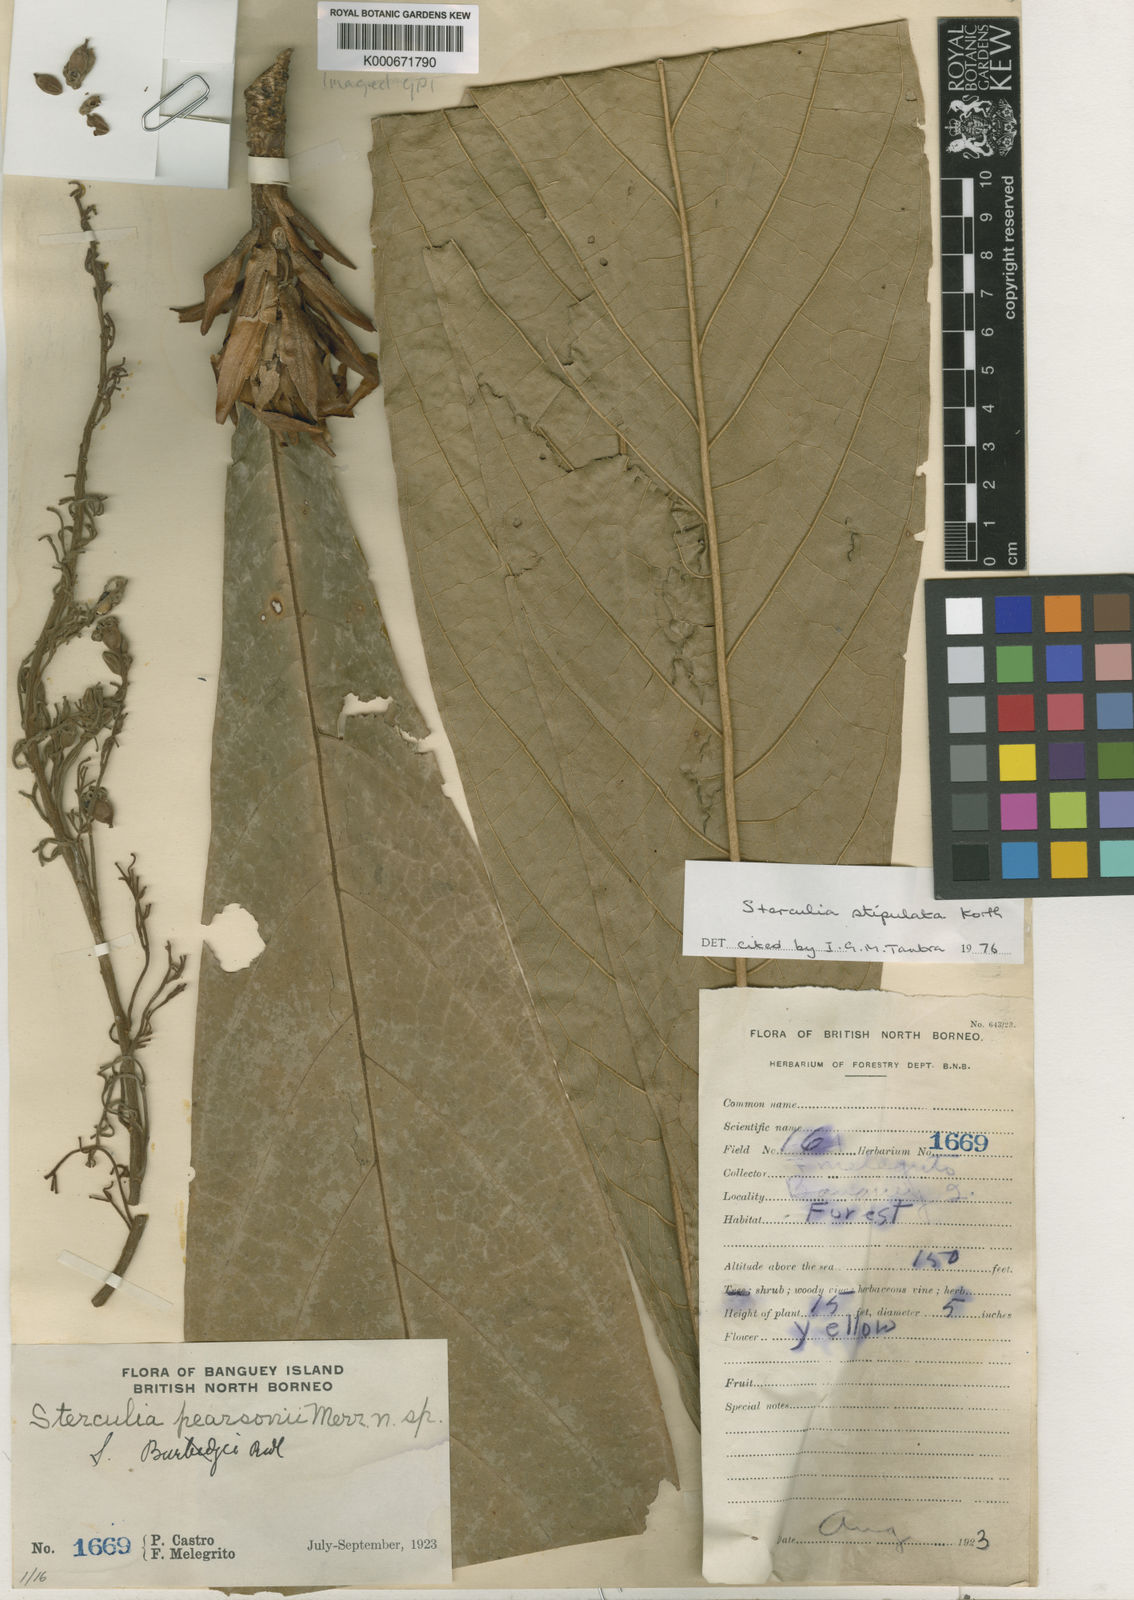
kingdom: Plantae
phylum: Tracheophyta
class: Magnoliopsida
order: Malvales
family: Malvaceae
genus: Sterculia
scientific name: Sterculia stipulata
